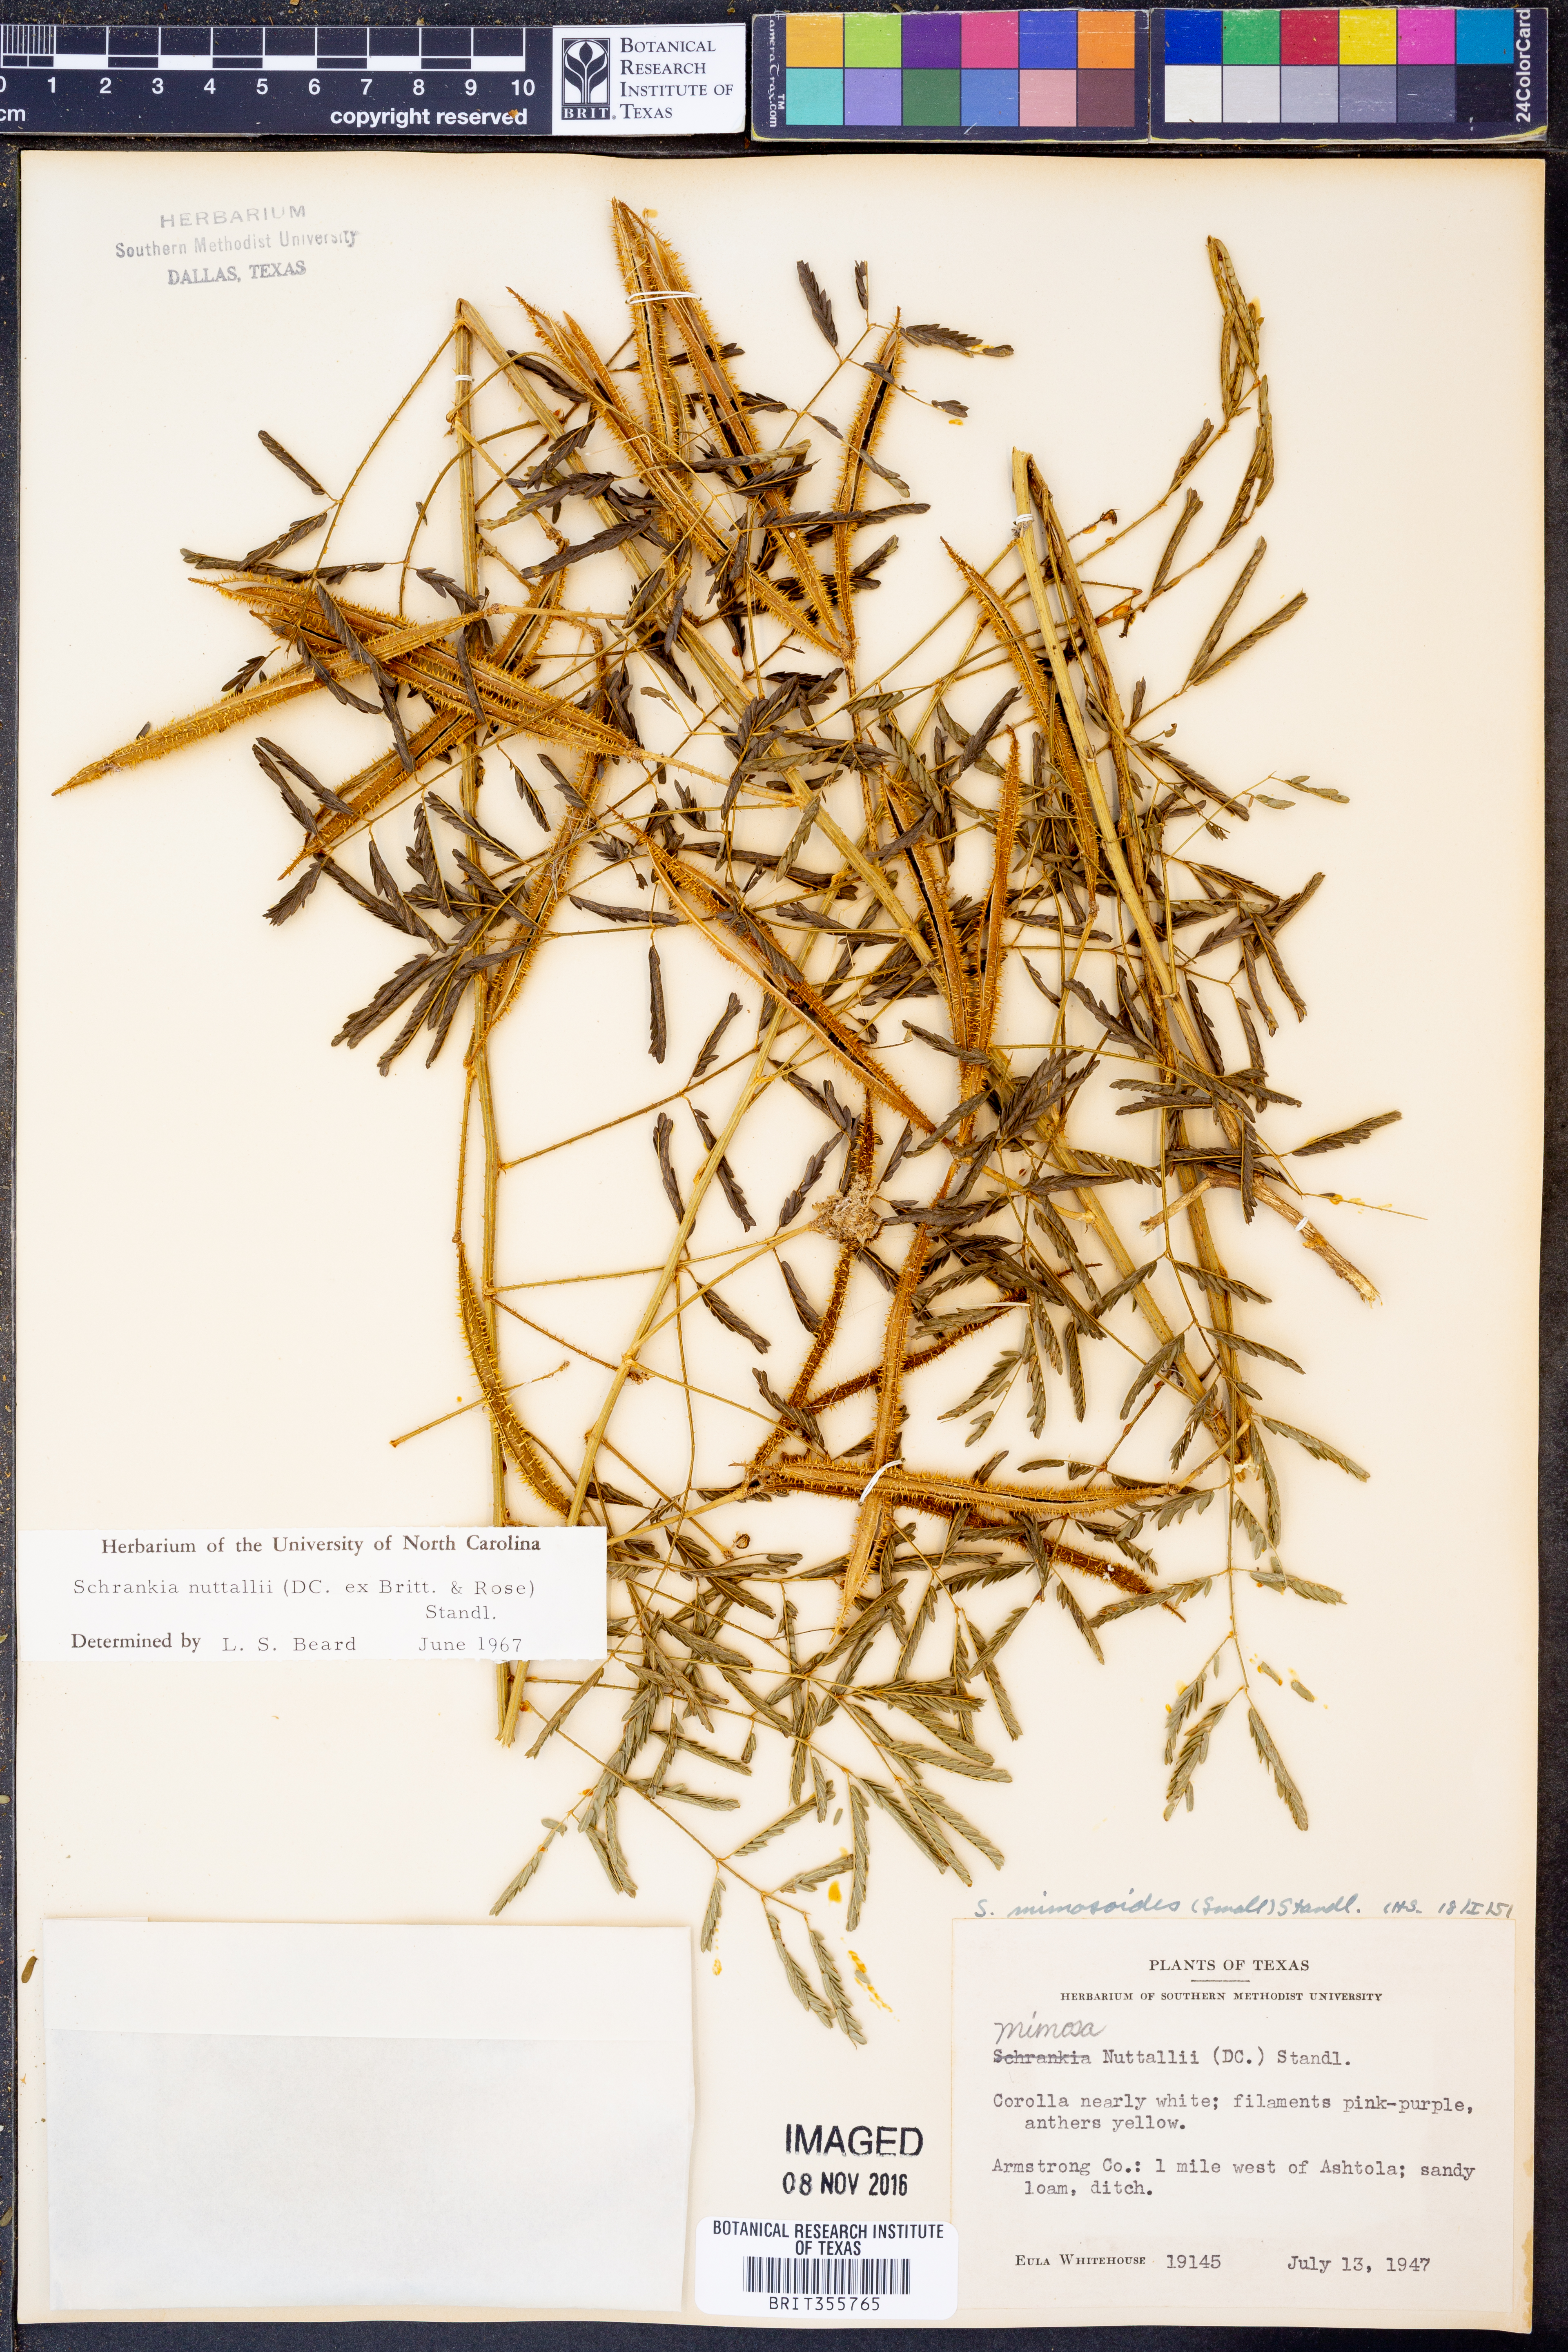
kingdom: Plantae
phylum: Tracheophyta
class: Magnoliopsida
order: Fabales
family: Fabaceae
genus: Mimosa
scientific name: Mimosa quadrivalvis
